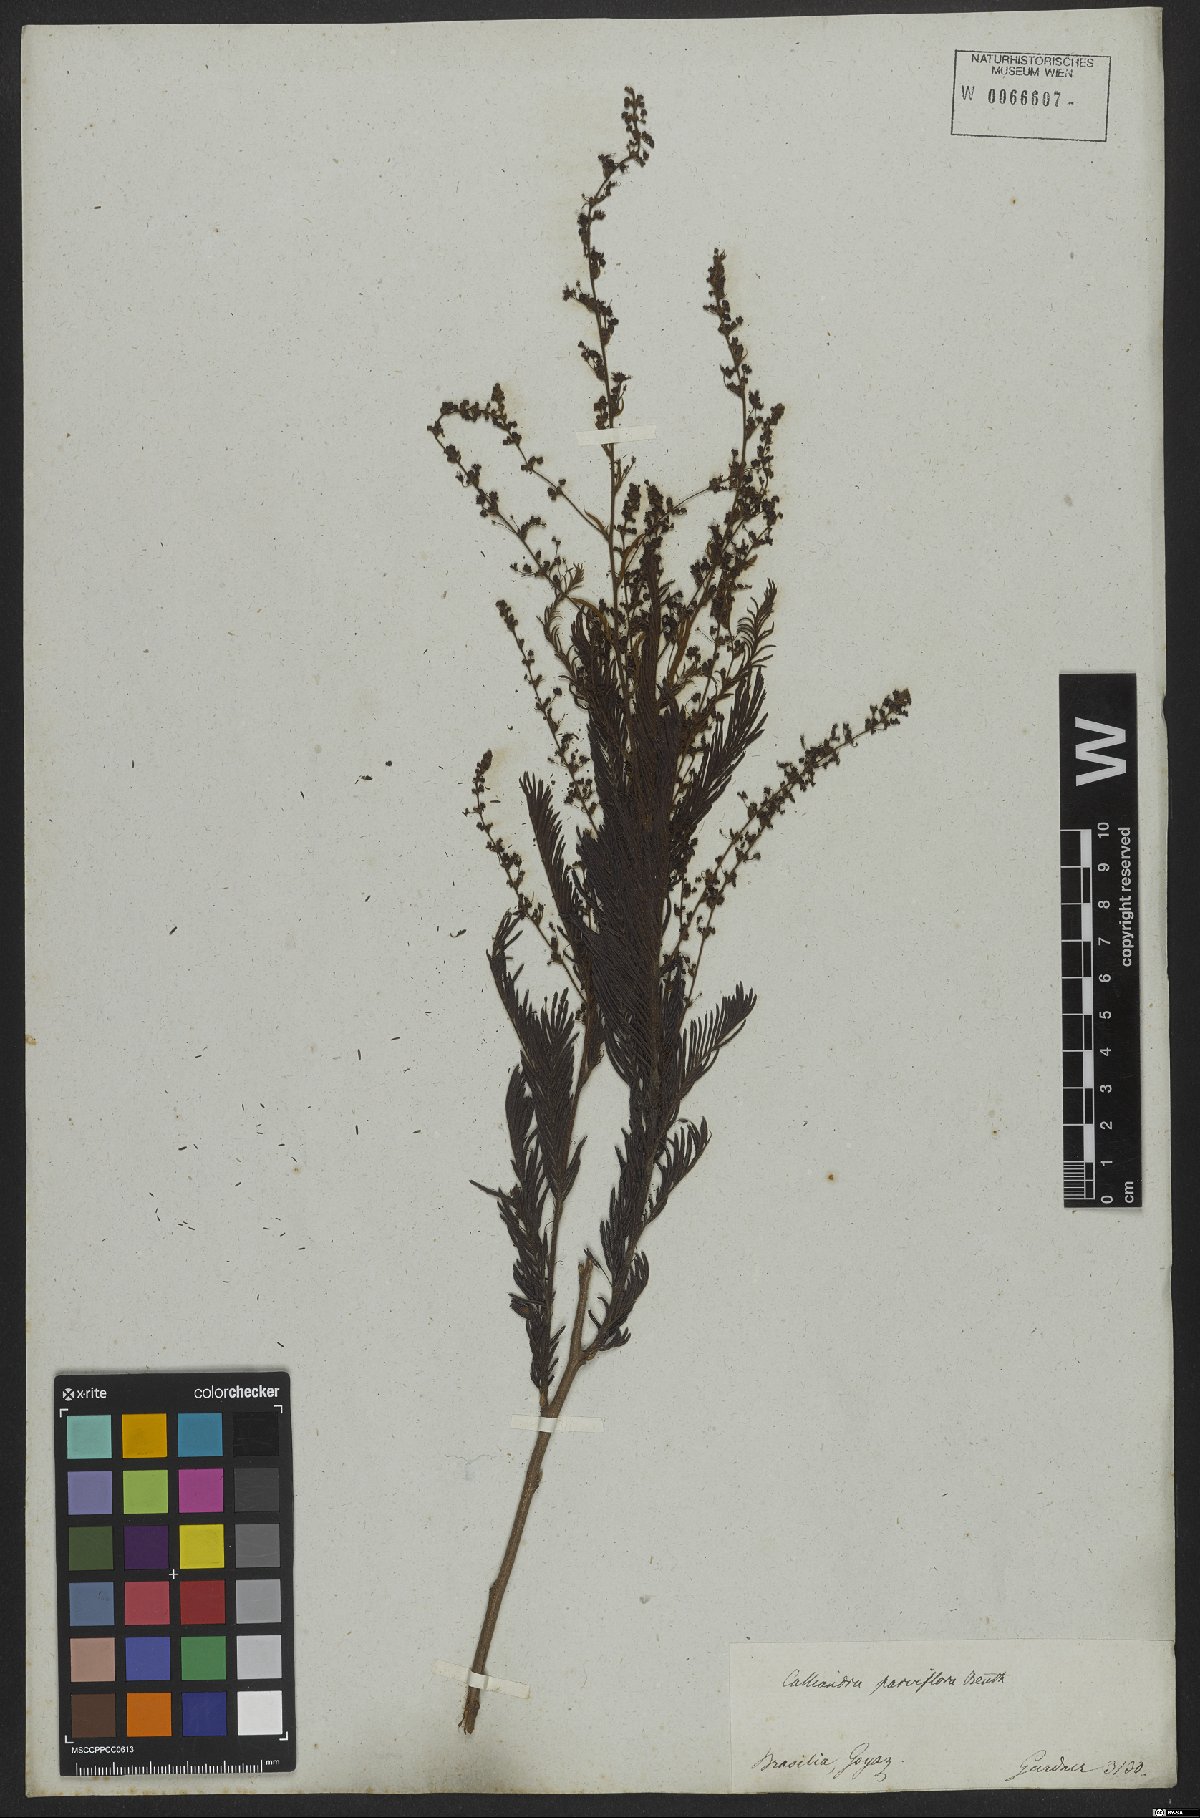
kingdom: Plantae
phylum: Tracheophyta
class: Magnoliopsida
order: Fabales
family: Fabaceae
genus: Calliandra
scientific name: Calliandra parviflora
